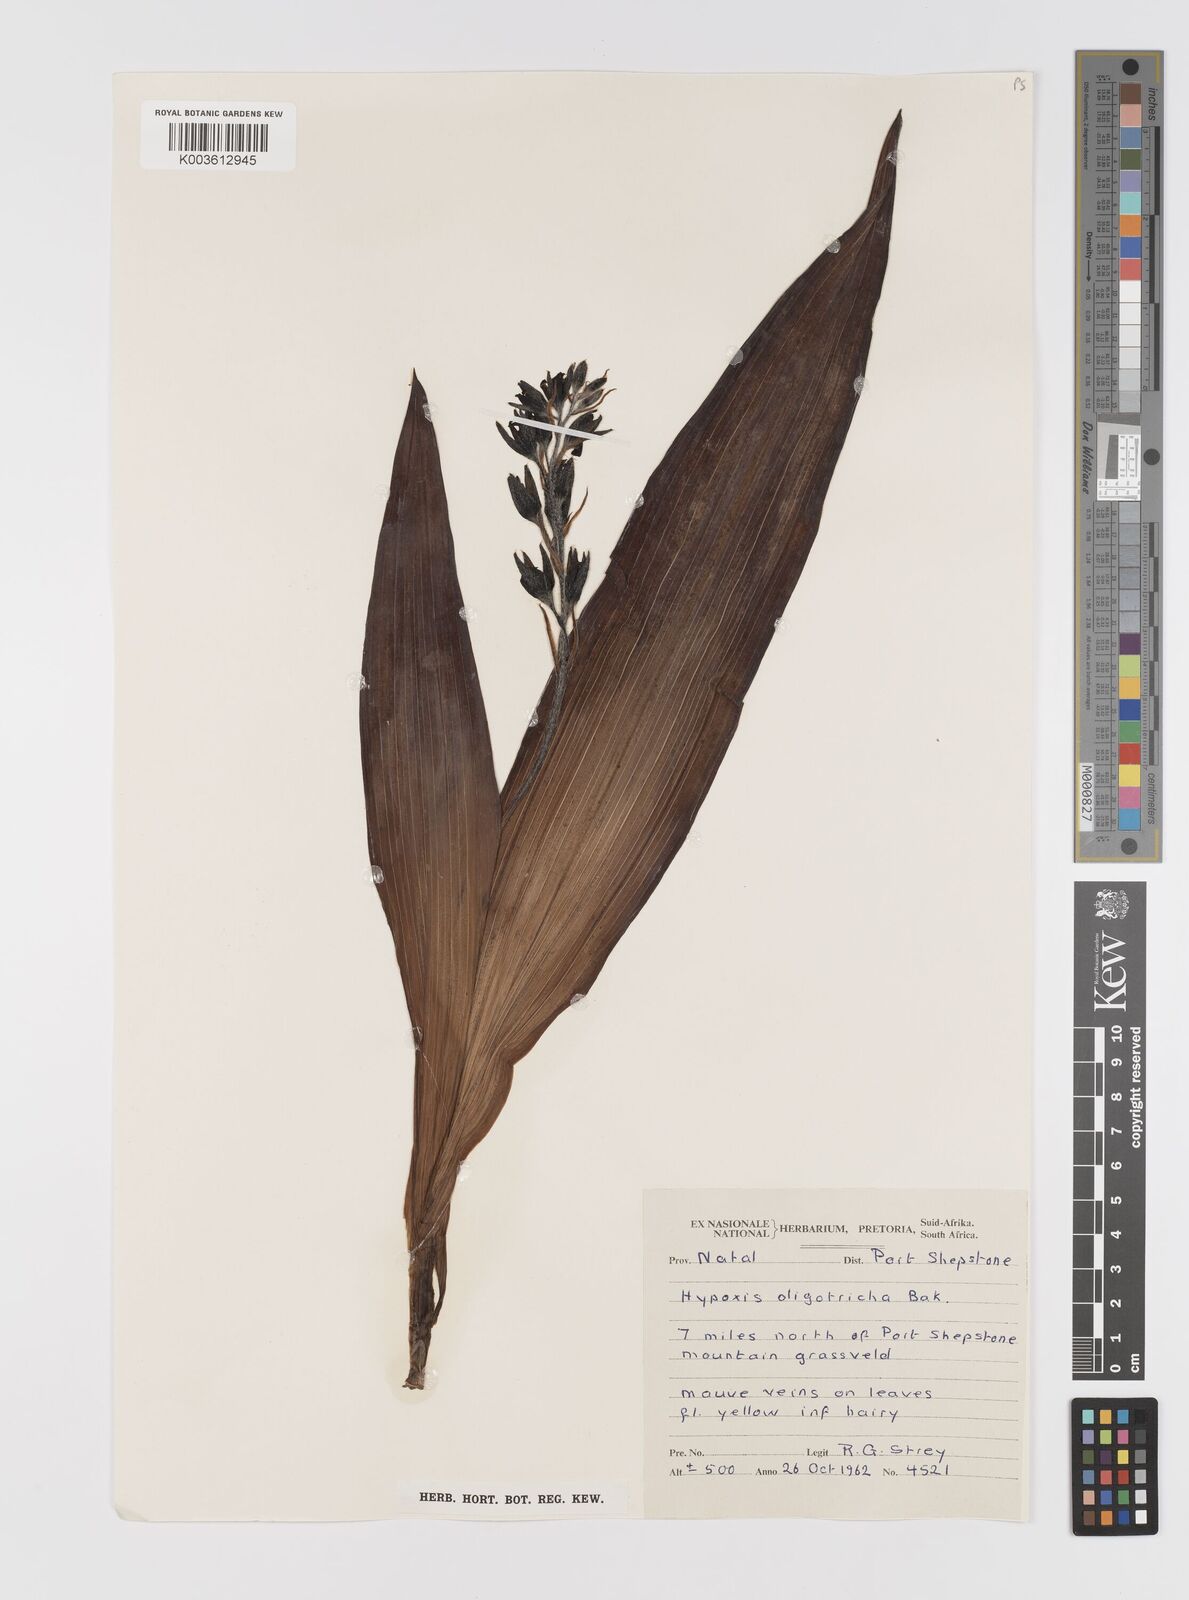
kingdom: Plantae
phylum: Tracheophyta
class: Liliopsida
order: Asparagales
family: Hypoxidaceae
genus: Hypoxis
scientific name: Hypoxis colchicifolia
